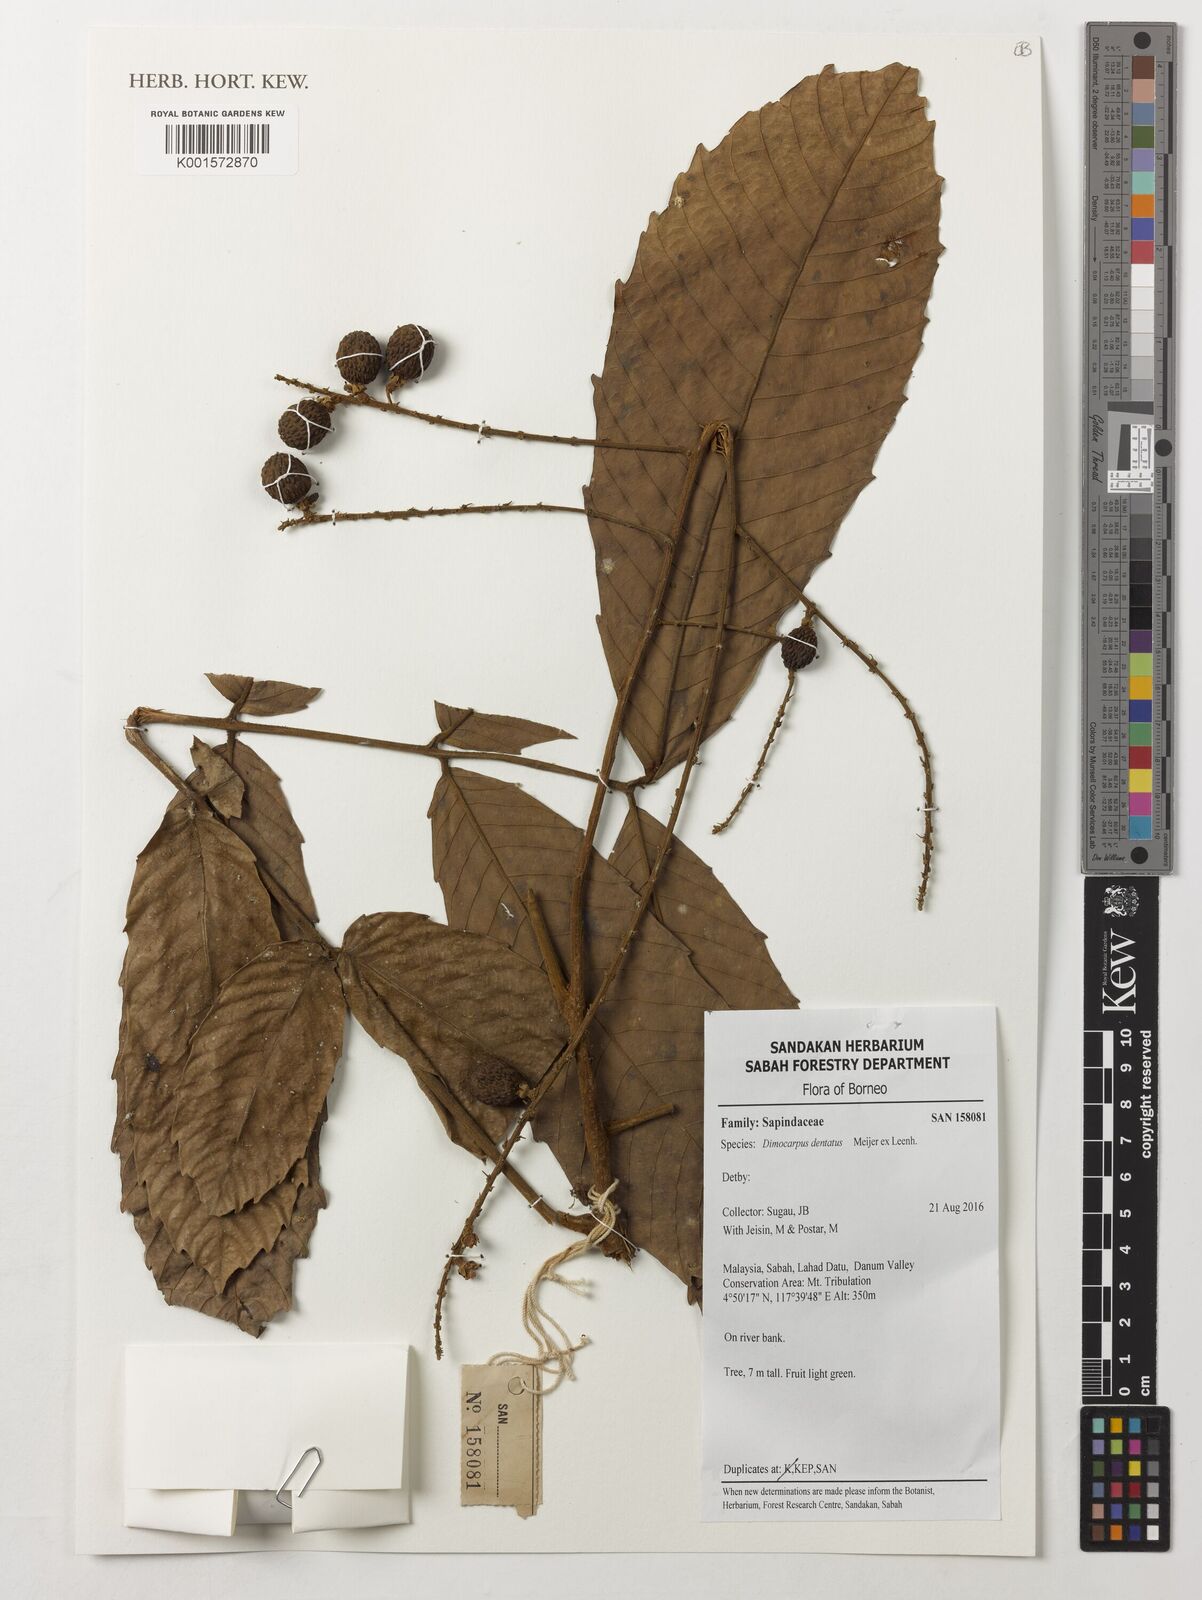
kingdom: Plantae
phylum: Tracheophyta
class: Magnoliopsida
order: Sapindales
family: Sapindaceae
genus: Dimocarpus
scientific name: Dimocarpus dentatus
